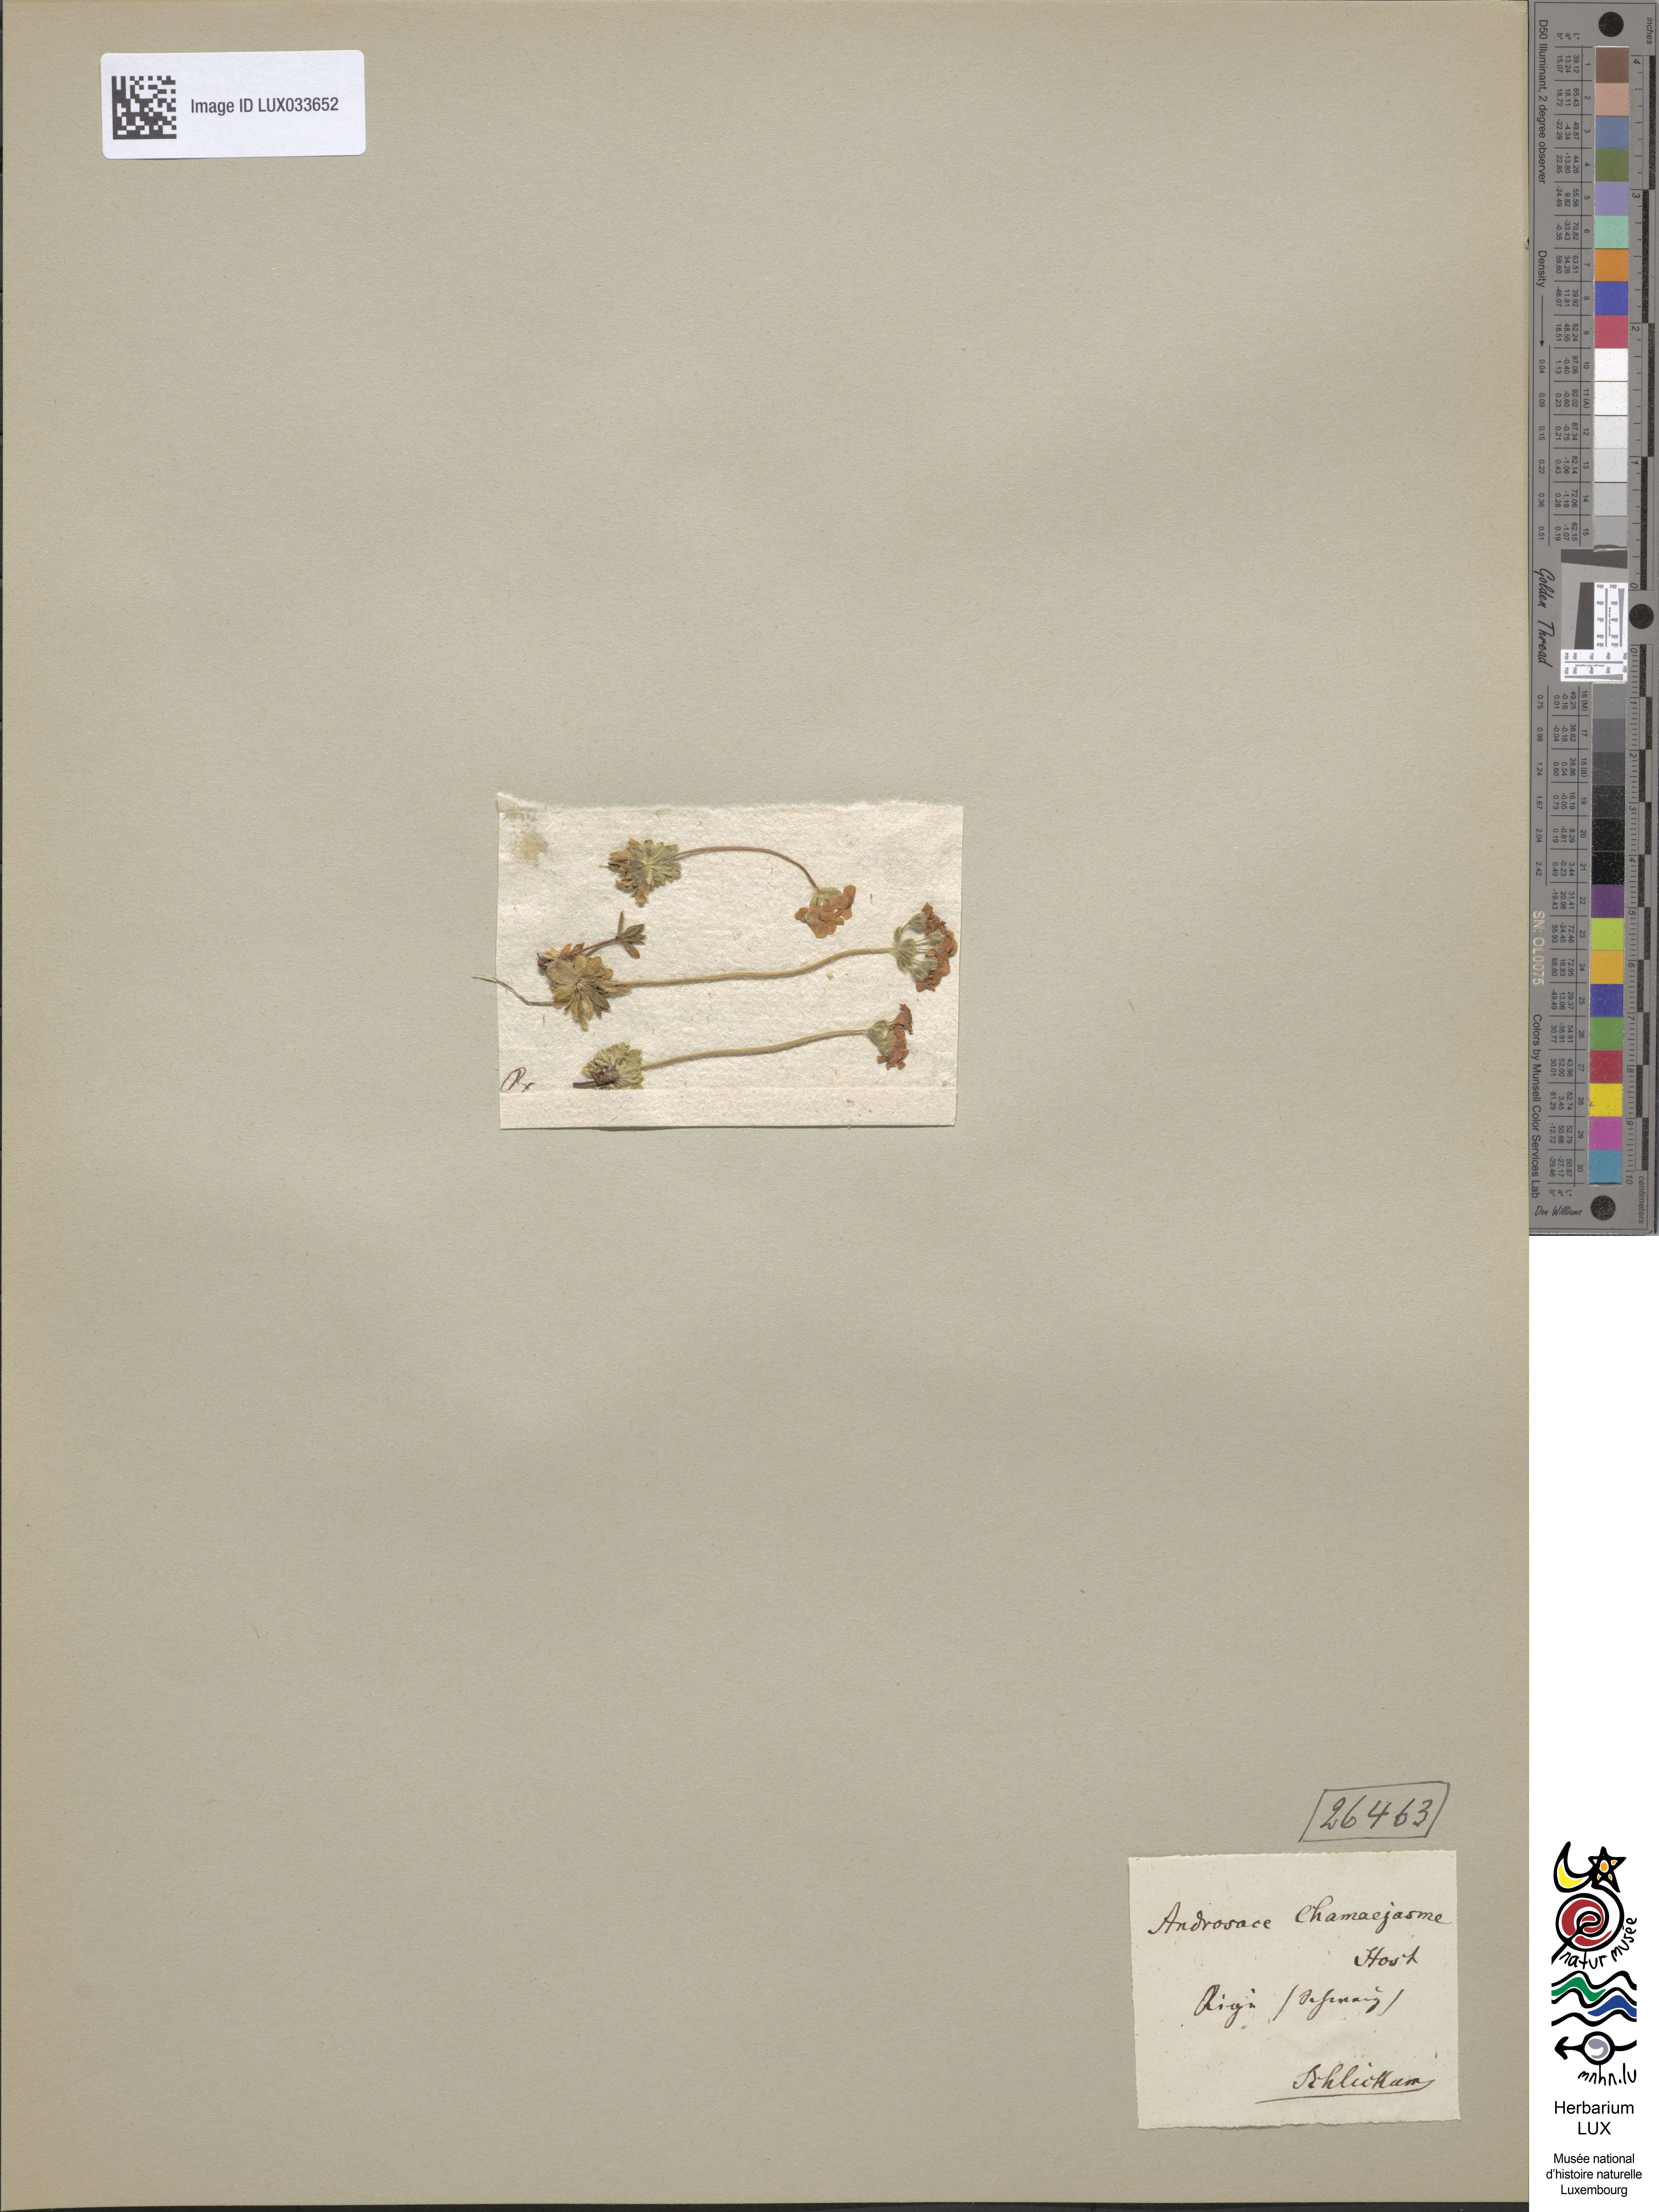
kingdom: Plantae
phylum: Tracheophyta
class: Magnoliopsida
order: Ericales
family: Primulaceae
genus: Androsace
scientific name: Androsace chamaejasme
